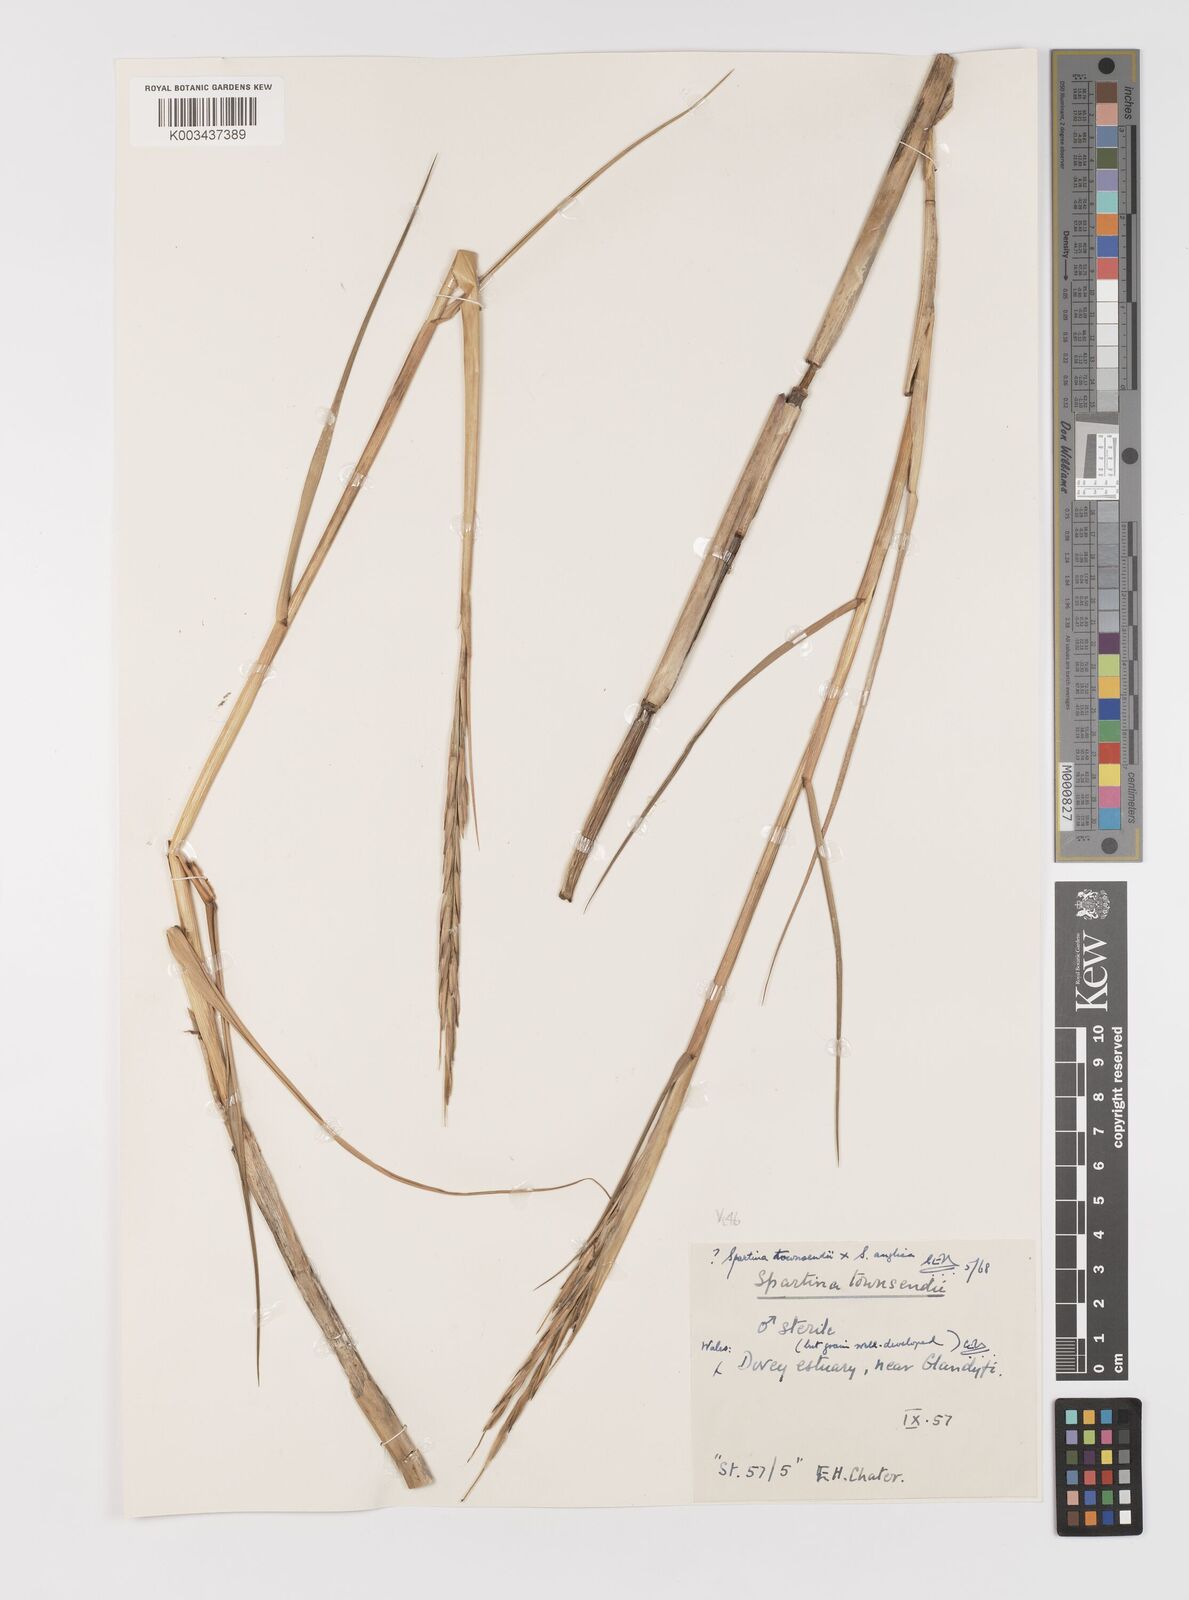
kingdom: Plantae
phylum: Tracheophyta
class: Liliopsida
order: Poales
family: Poaceae
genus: Sporobolus
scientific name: Sporobolus anglicus
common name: English cordgrass
